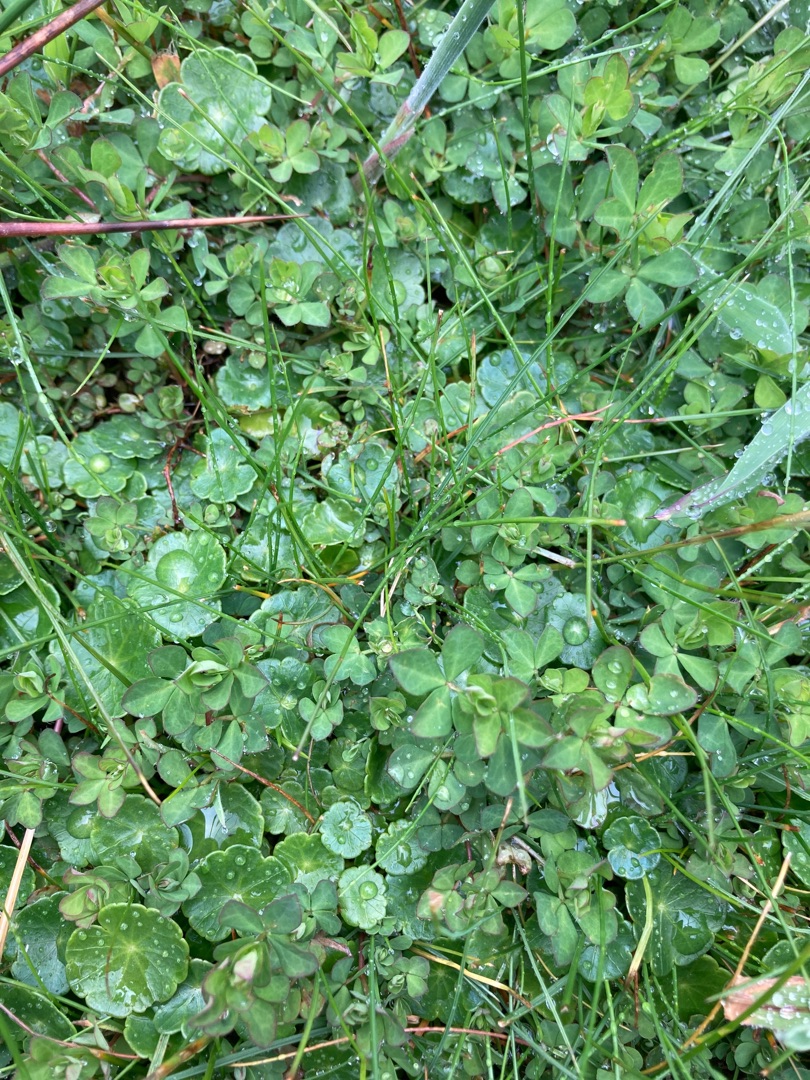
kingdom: Plantae
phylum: Tracheophyta
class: Magnoliopsida
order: Apiales
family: Araliaceae
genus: Hydrocotyle
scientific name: Hydrocotyle vulgaris
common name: Vandnavle
